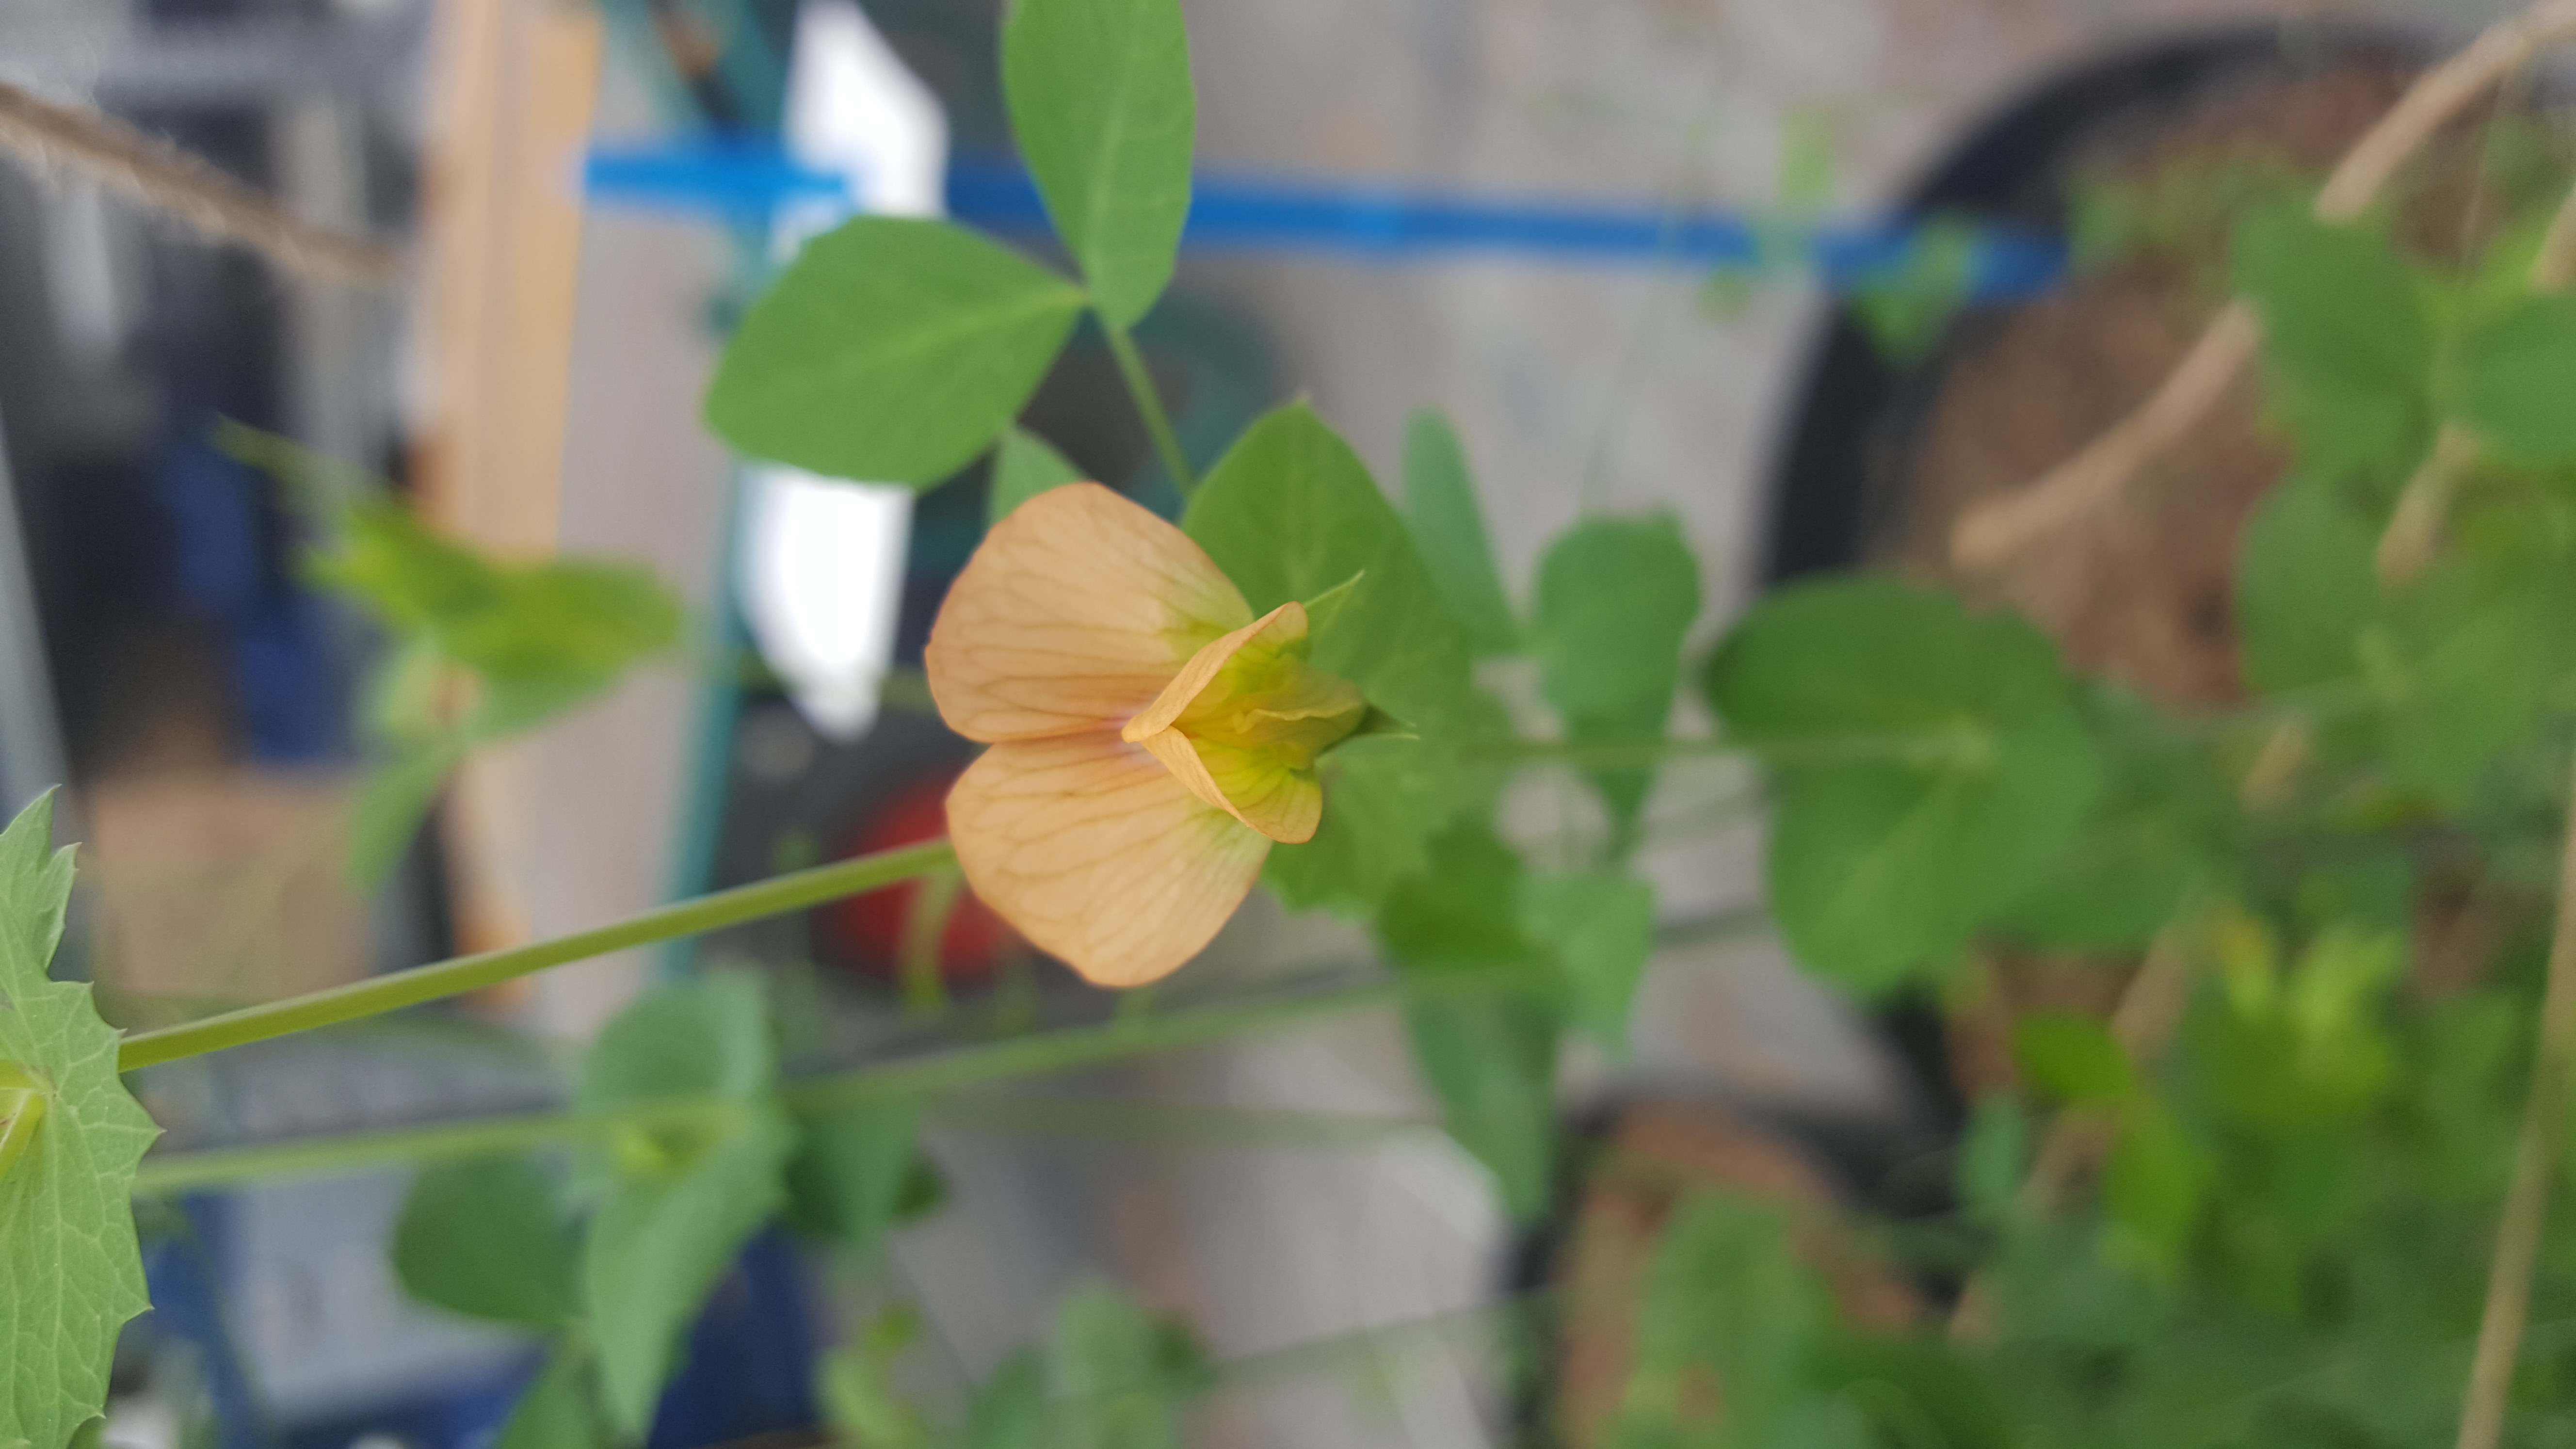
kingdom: Plantae
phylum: Tracheophyta
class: Magnoliopsida
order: Fabales
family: Fabaceae
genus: Lathyrus
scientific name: Lathyrus fulvus
